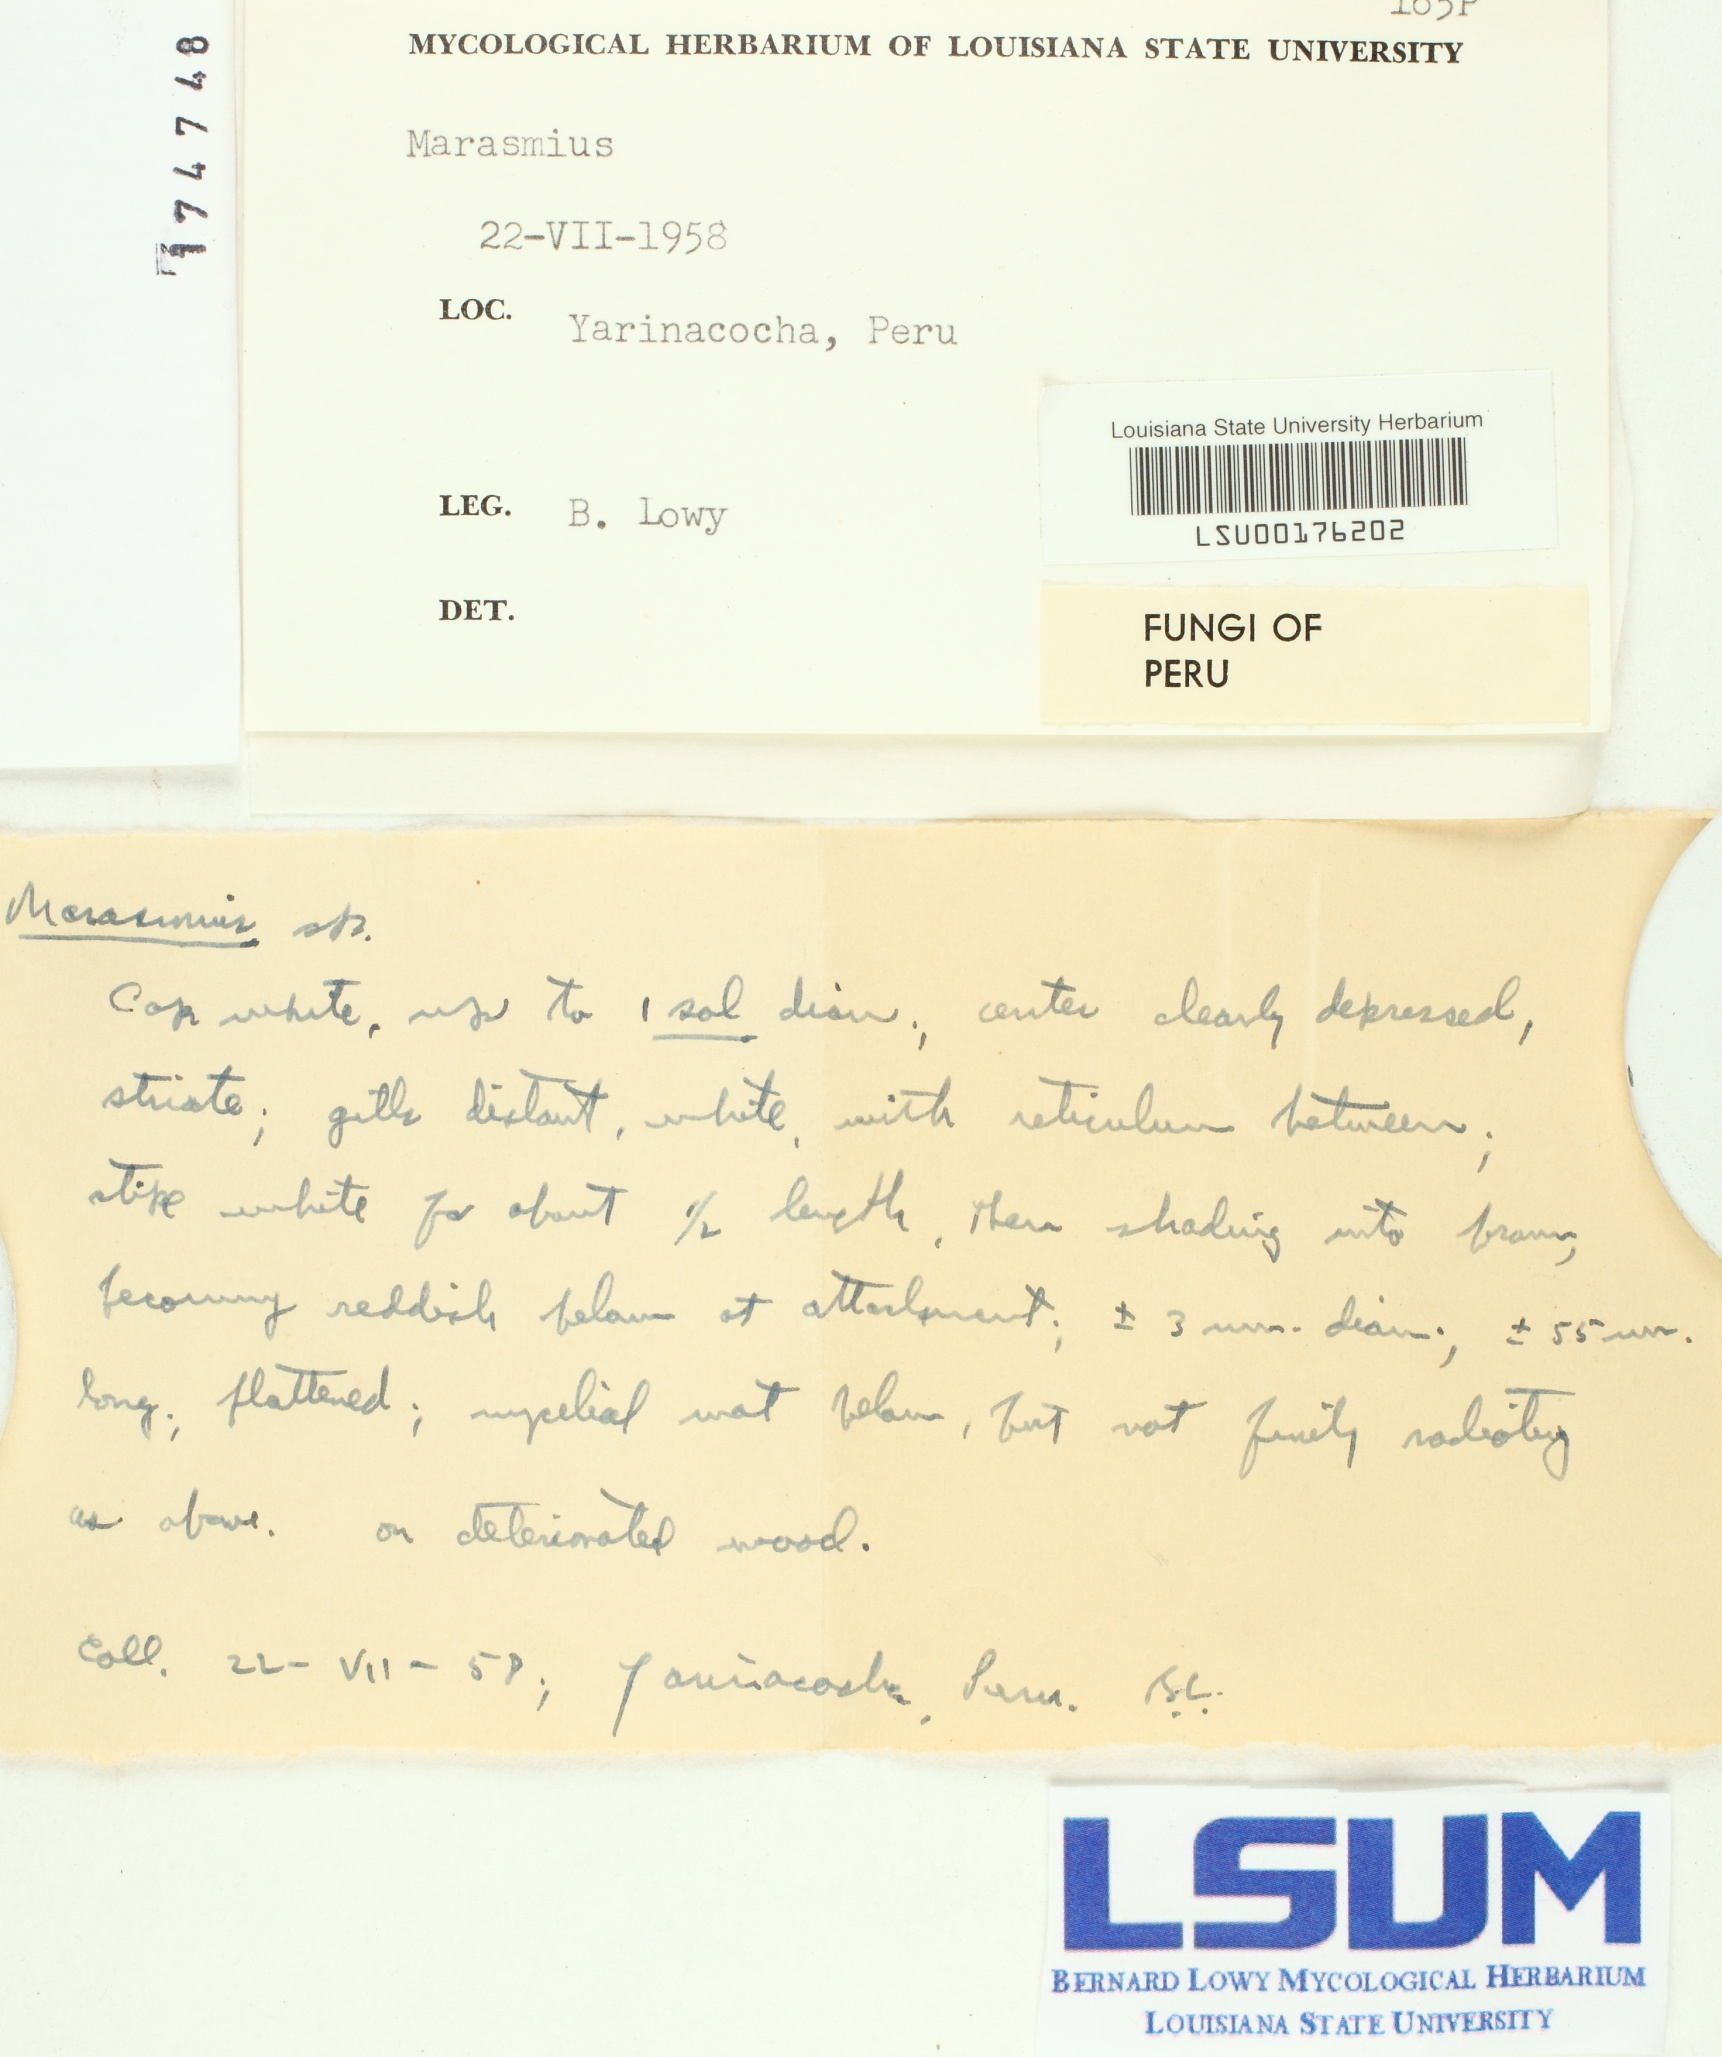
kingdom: Fungi
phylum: Basidiomycota
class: Agaricomycetes
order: Agaricales
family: Marasmiaceae
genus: Marasmius
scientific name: Marasmius
